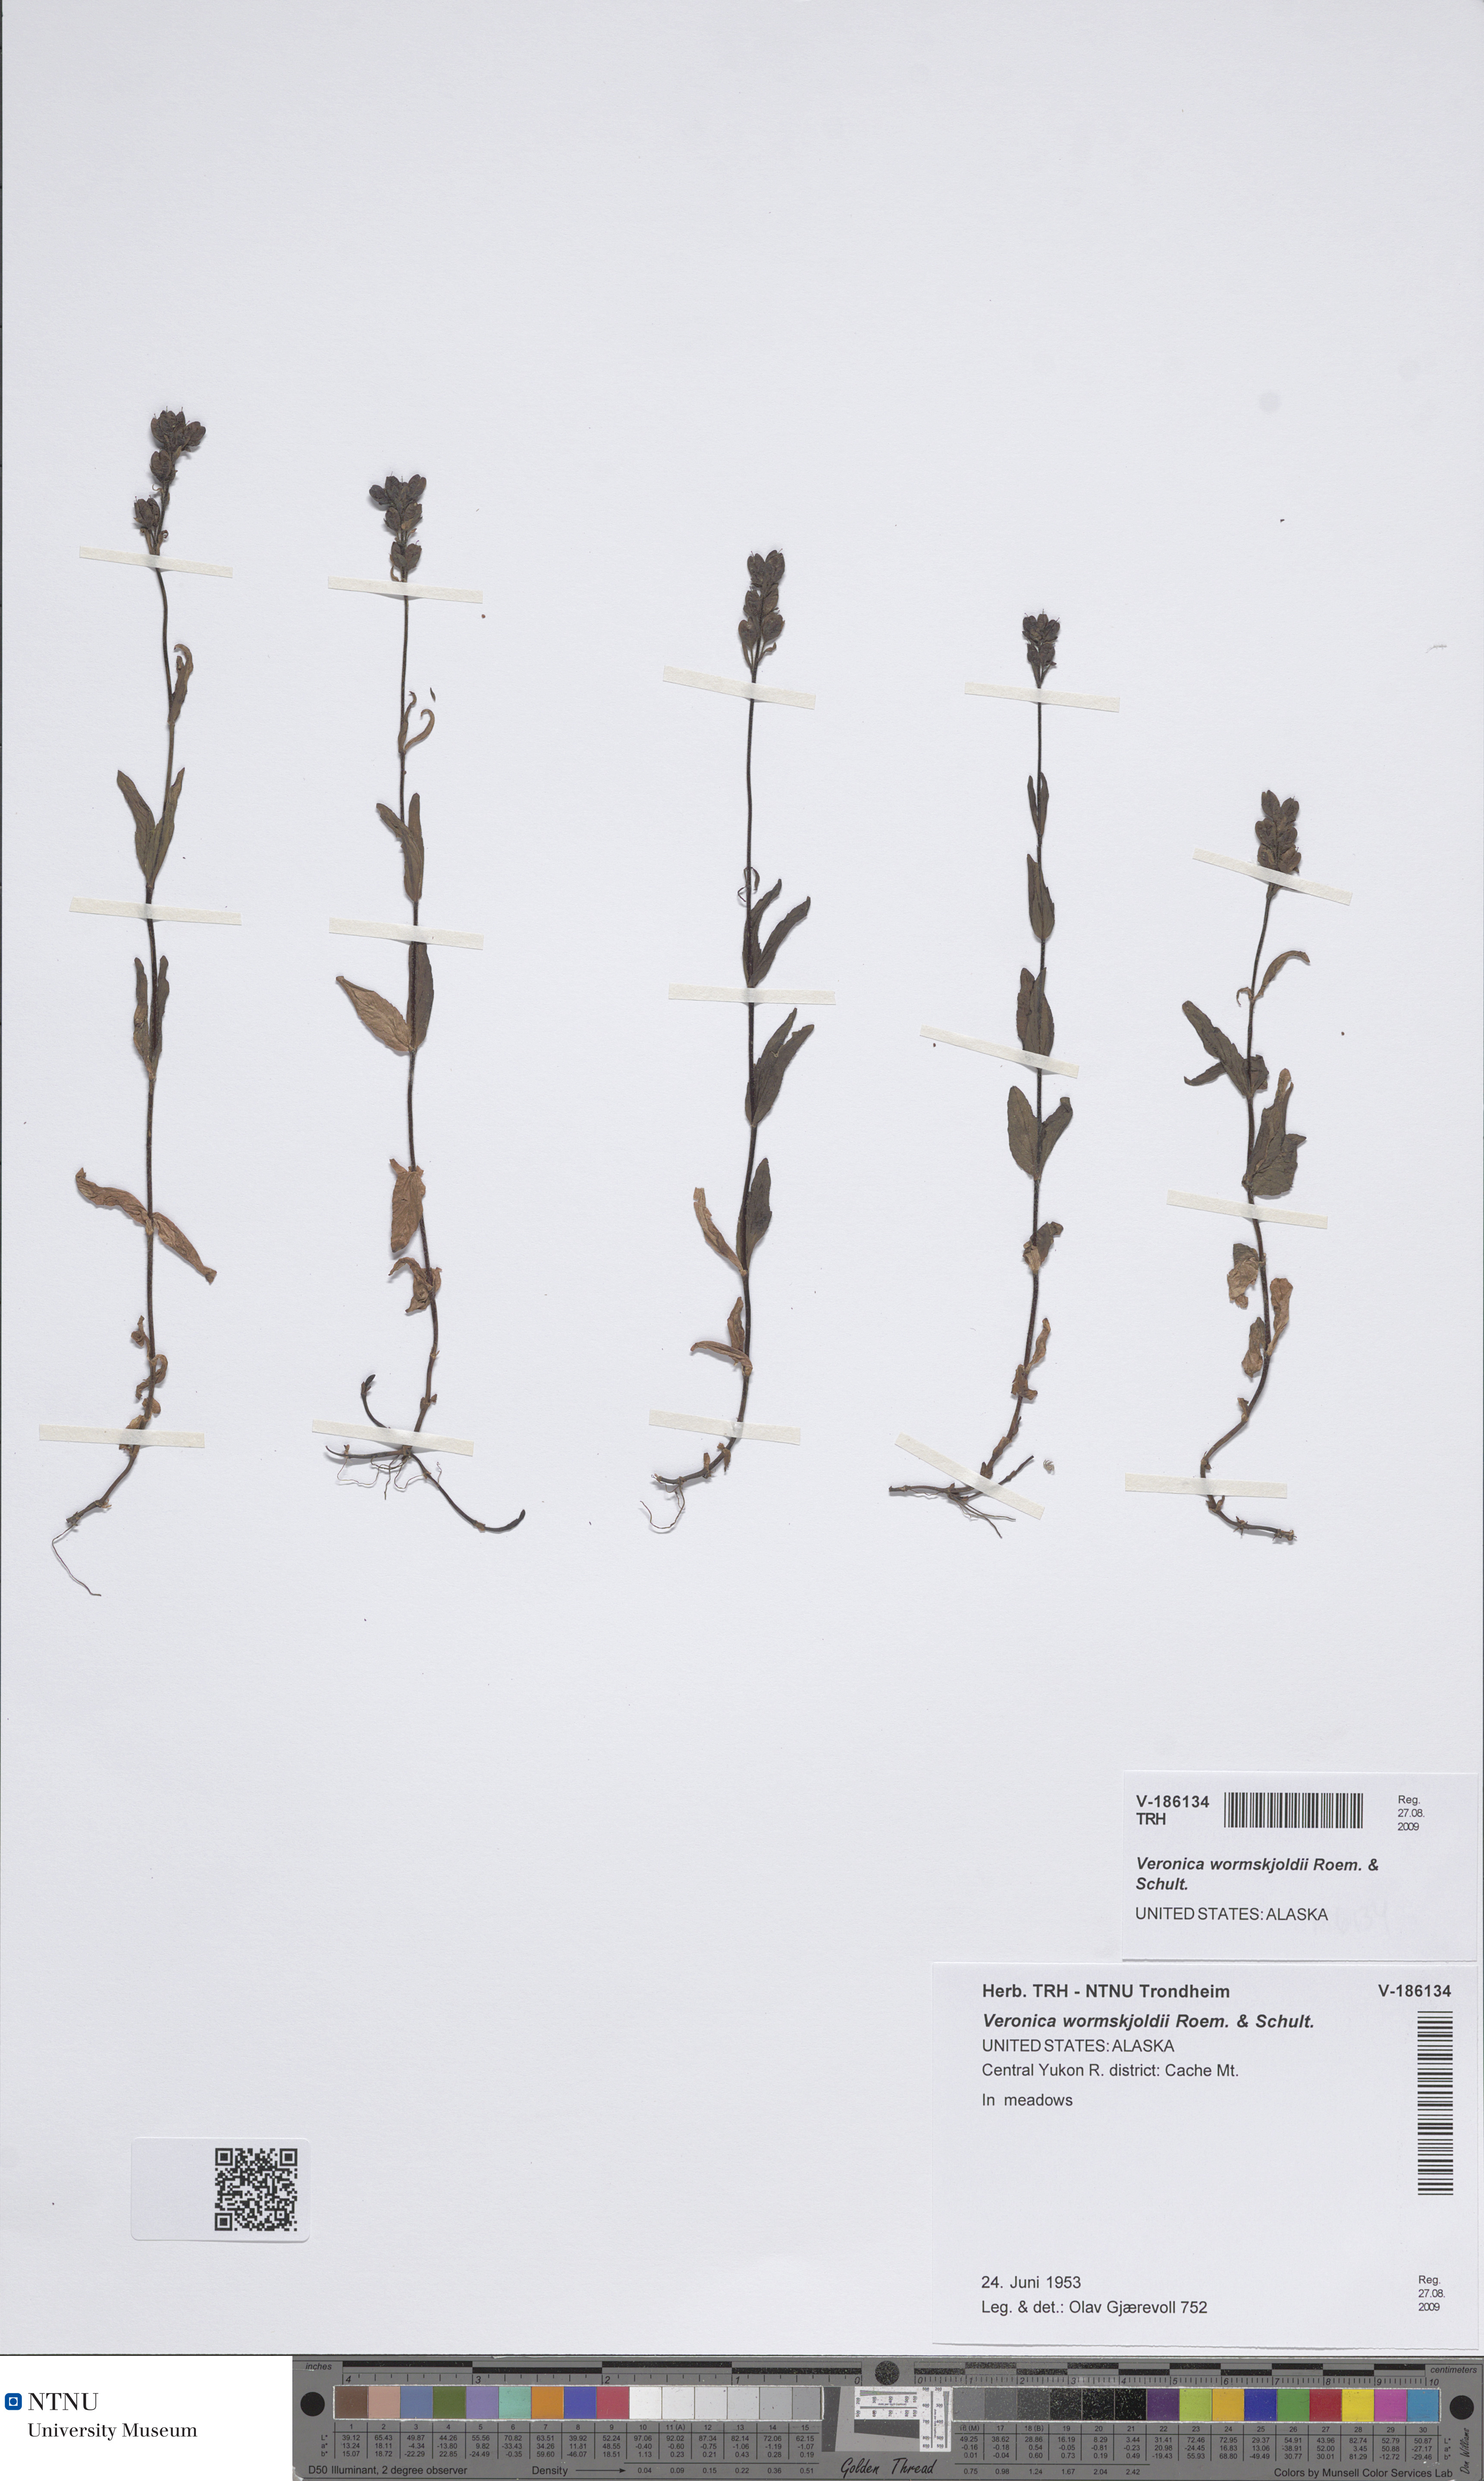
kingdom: Plantae
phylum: Tracheophyta
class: Magnoliopsida
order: Lamiales
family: Plantaginaceae
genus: Veronica
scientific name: Veronica wormskjoldii
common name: American alpine speedwell
